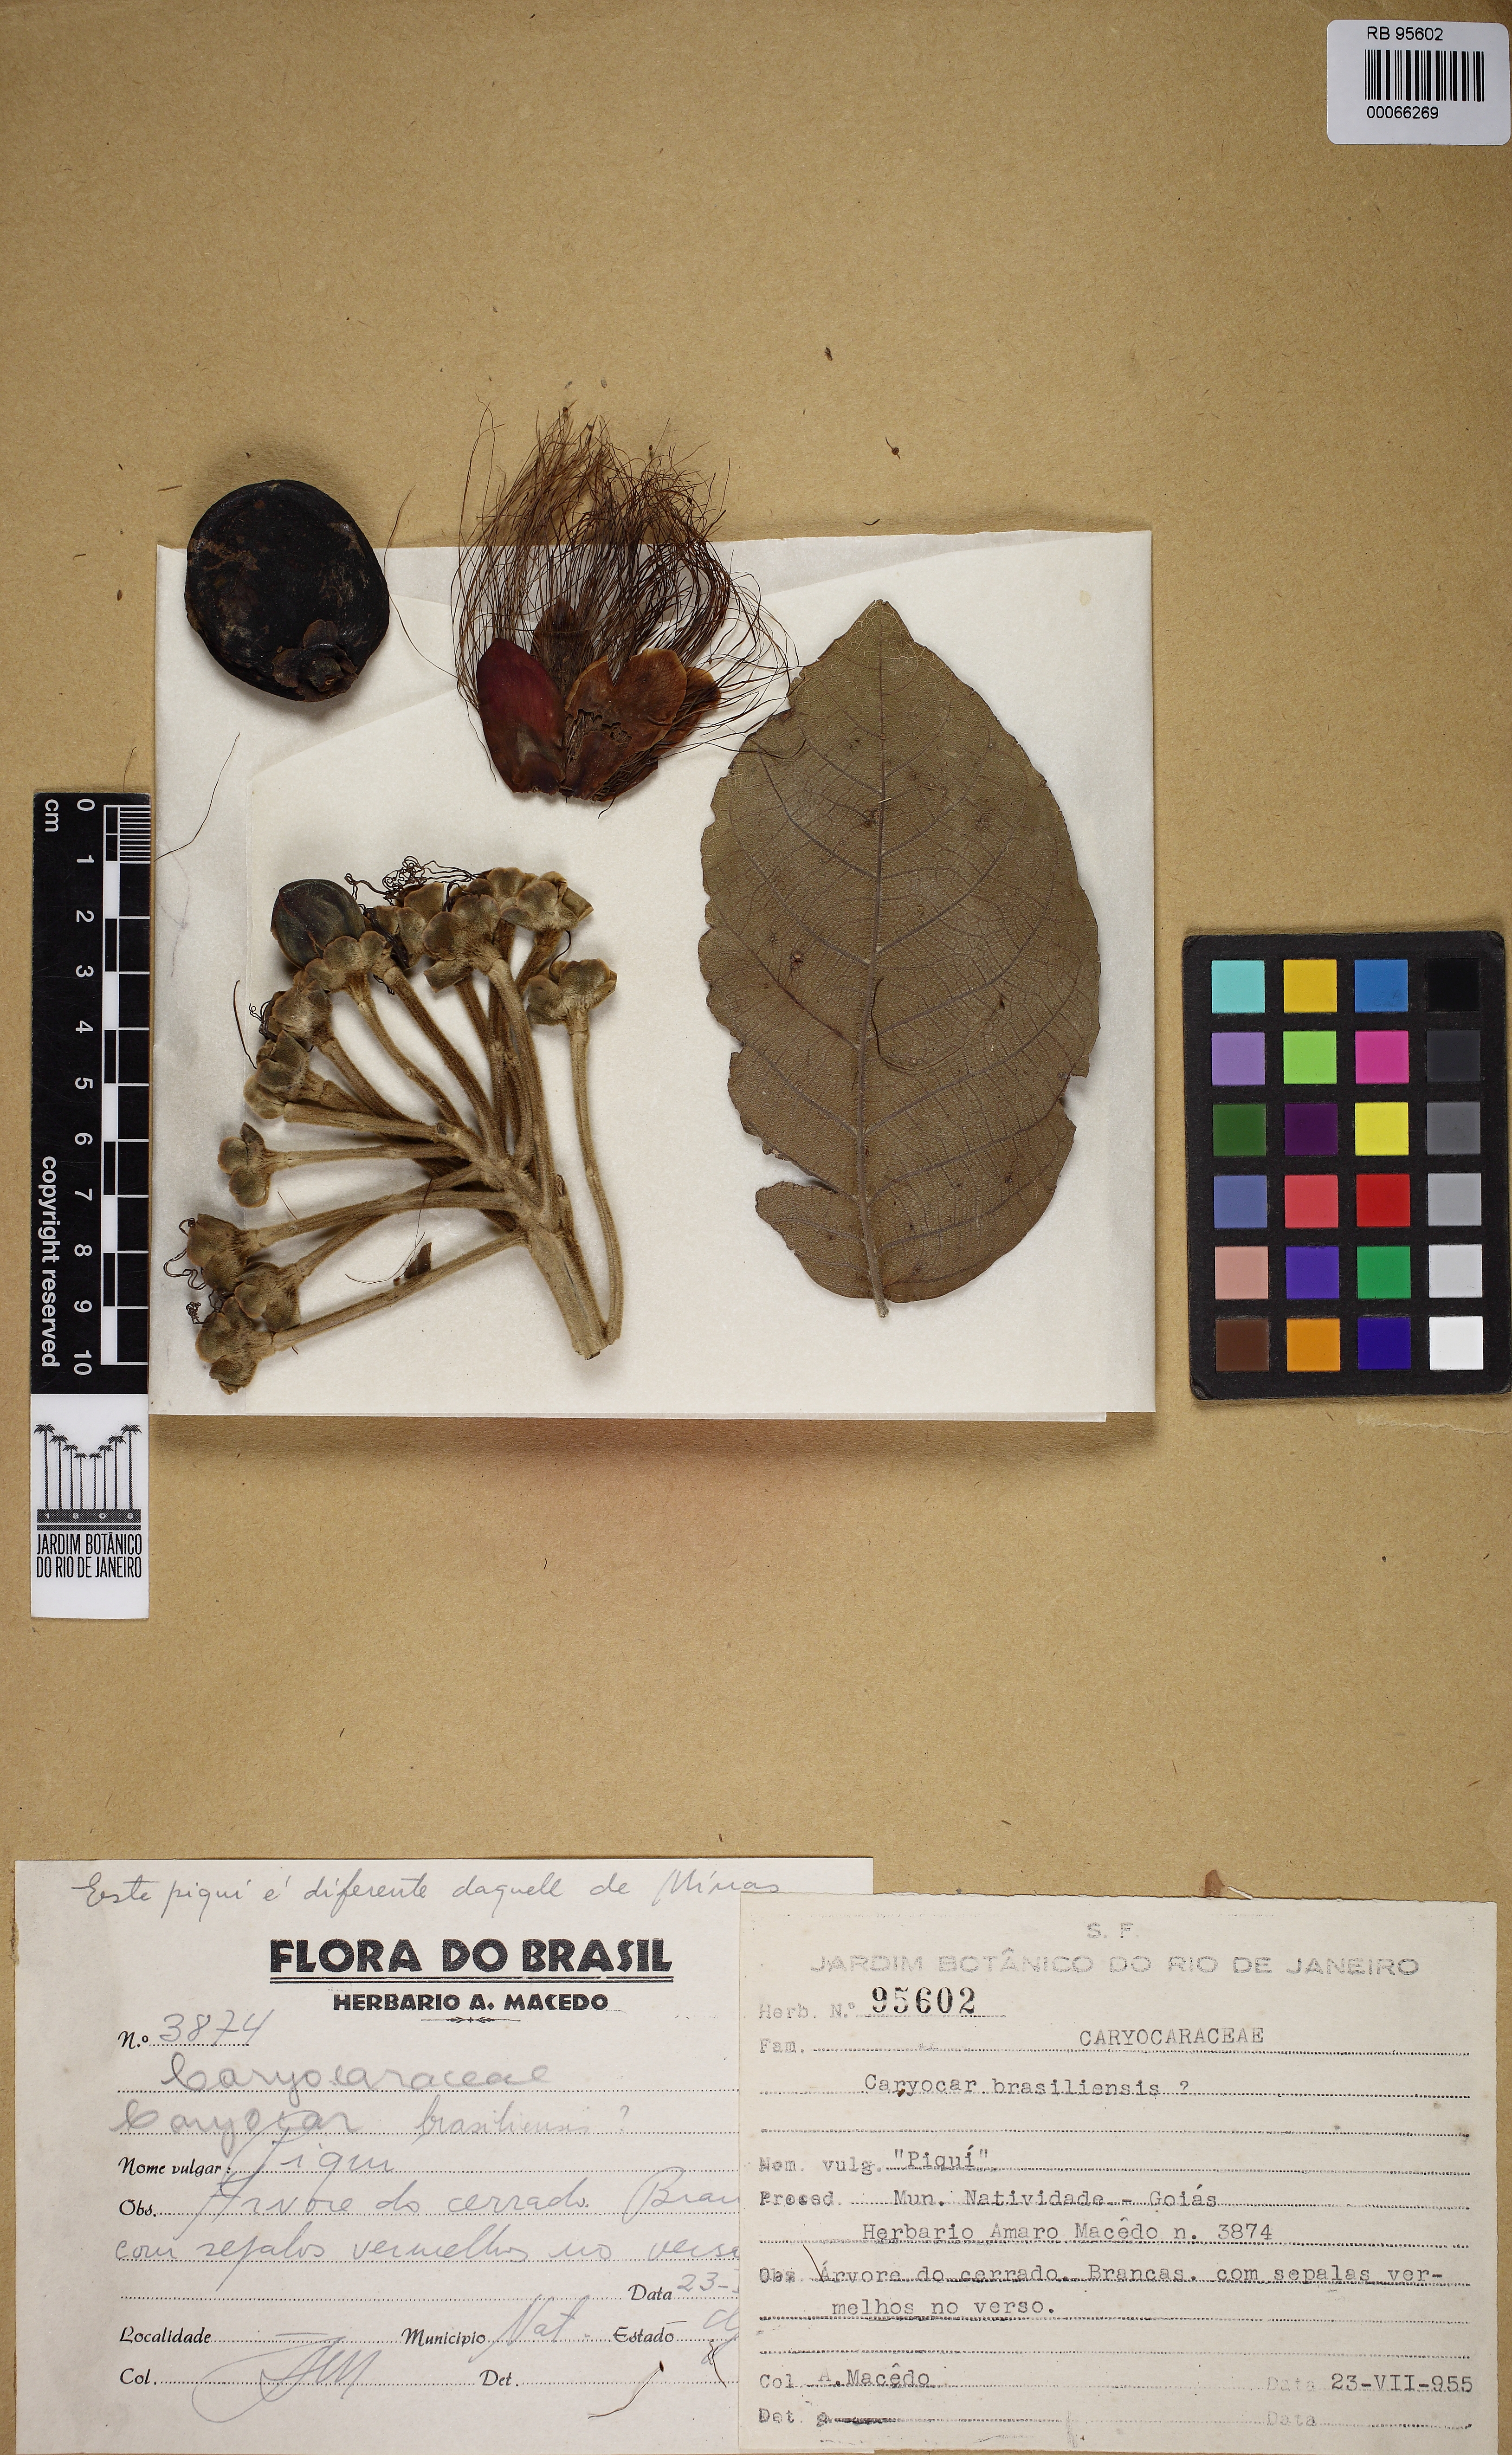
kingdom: Plantae
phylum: Tracheophyta
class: Magnoliopsida
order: Malpighiales
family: Caryocaraceae
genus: Caryocar
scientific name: Caryocar brasiliense
